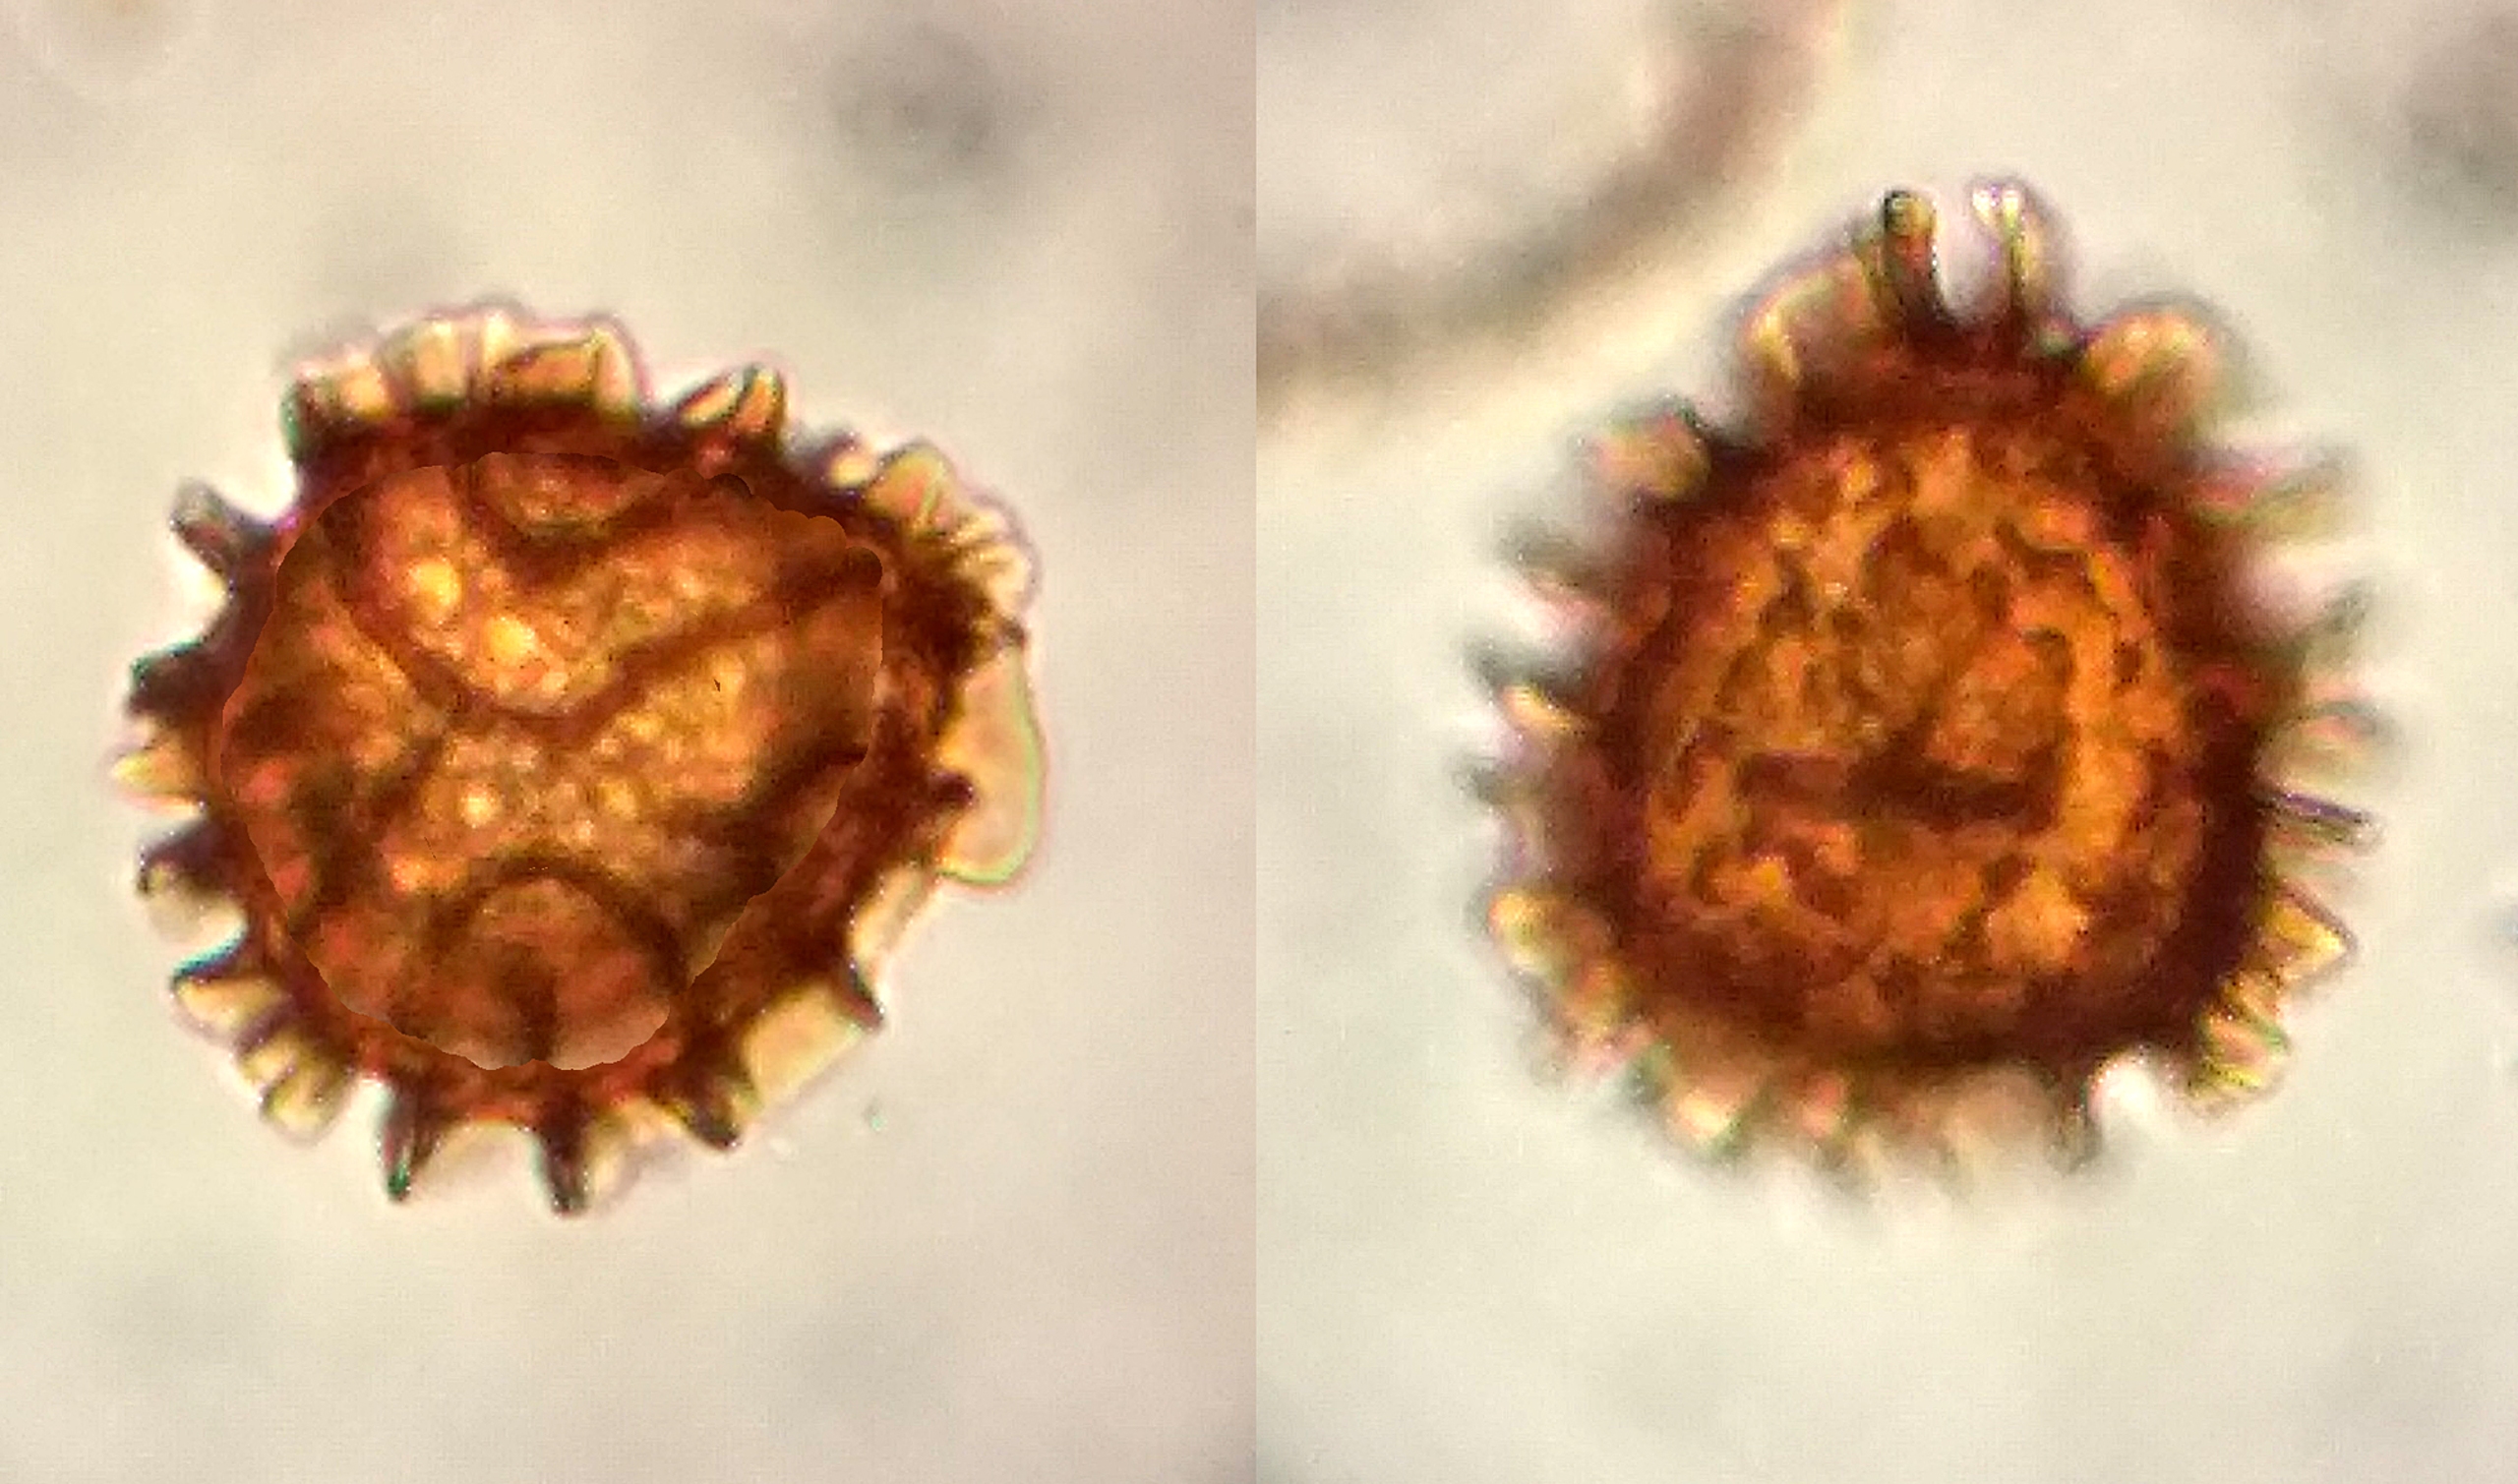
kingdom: Plantae
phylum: Marchantiophyta
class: Jungermanniopsida
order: Fossombroniales
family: Fossombroniaceae
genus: Fossombronia
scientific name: Fossombronia pusilla
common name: Stor klokkesvøb
